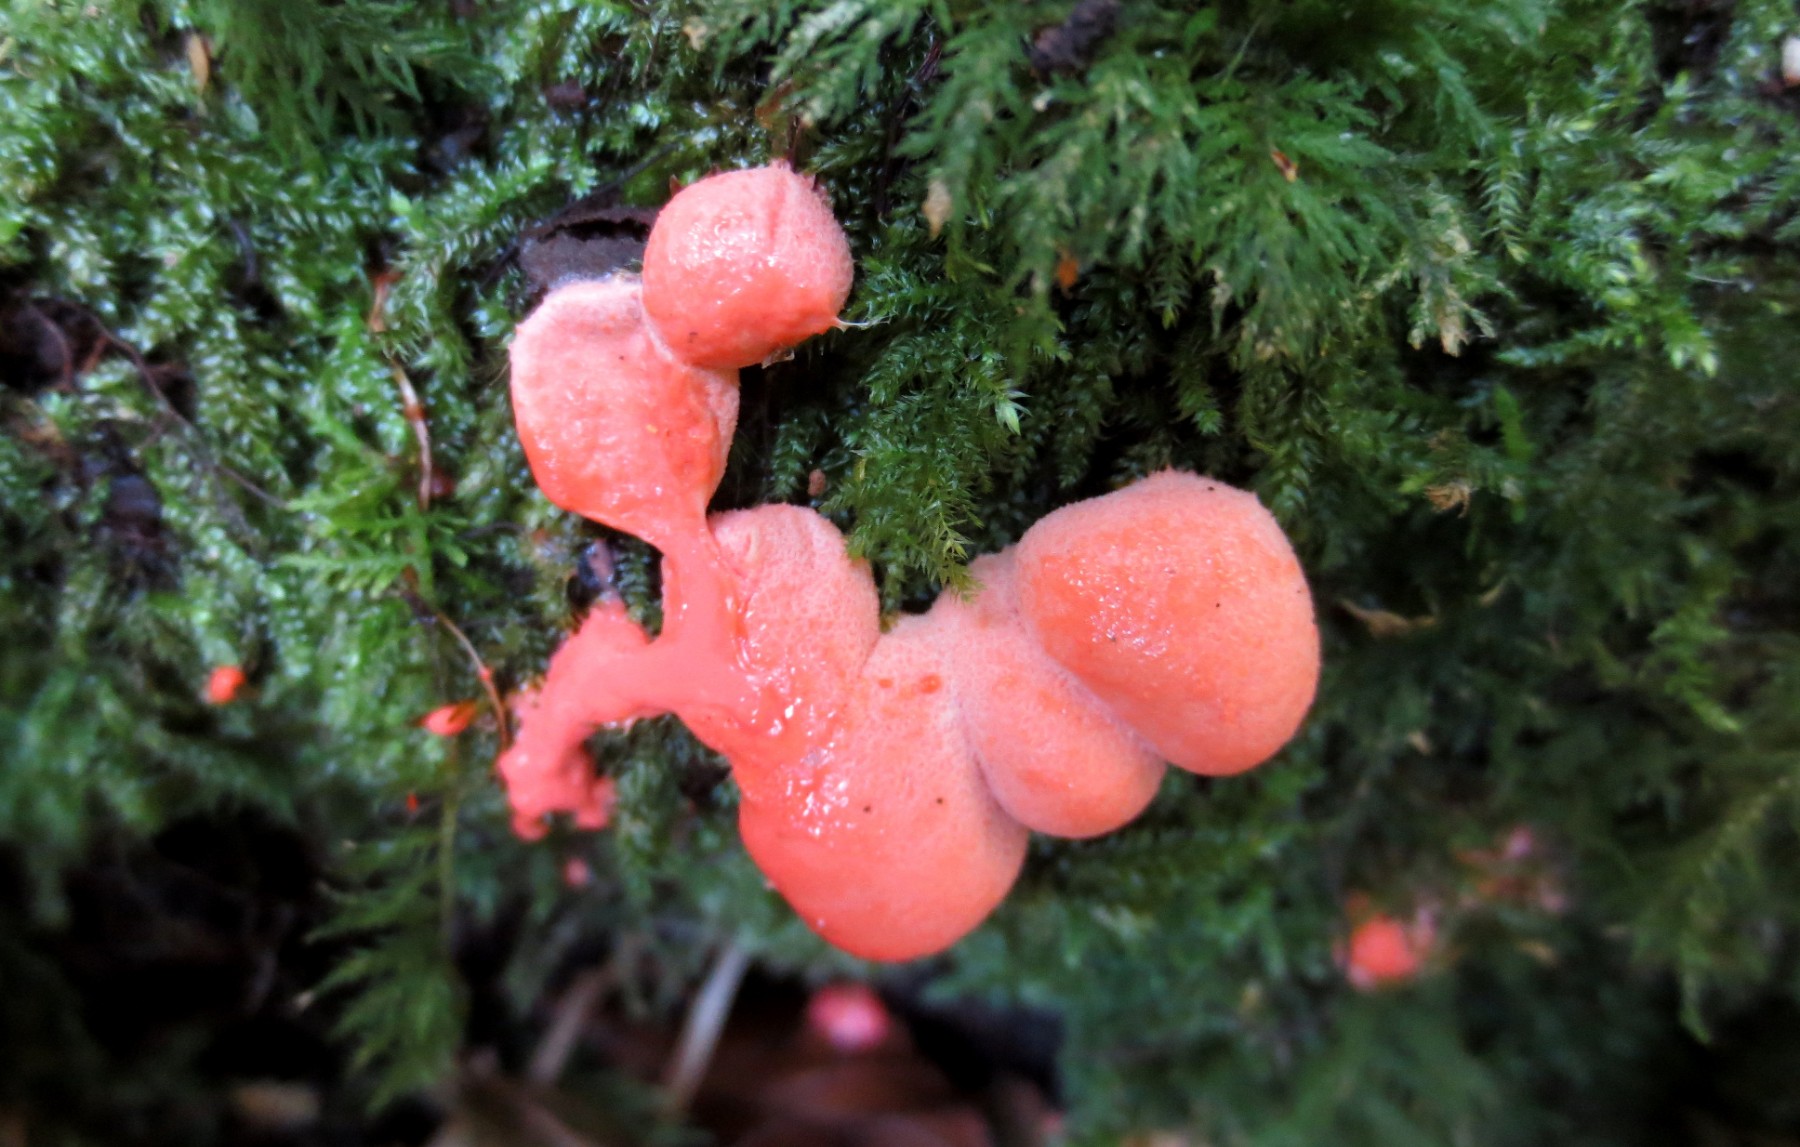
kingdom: Protozoa
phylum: Mycetozoa
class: Myxomycetes
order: Cribrariales
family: Tubiferaceae
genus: Tubifera
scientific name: Tubifera ferruginosa
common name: kanel-støvrør
